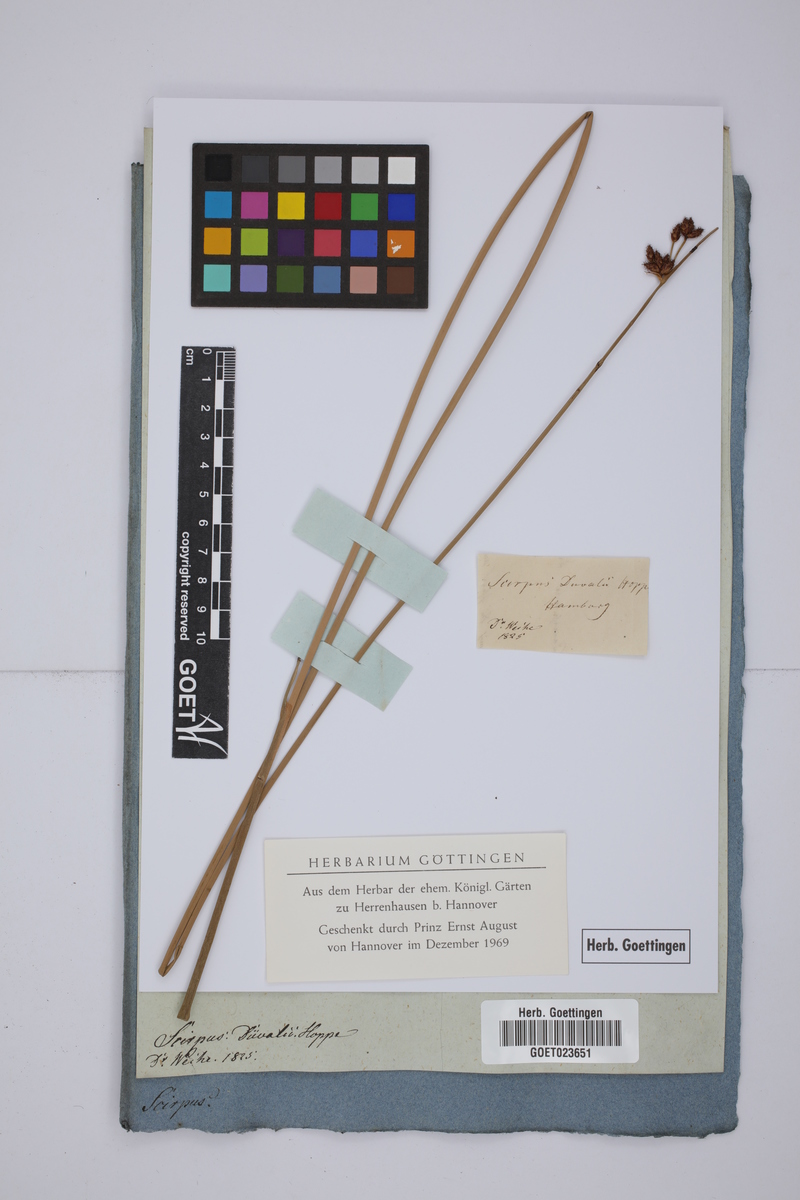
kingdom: Plantae
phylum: Tracheophyta
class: Liliopsida
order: Poales
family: Cyperaceae
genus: Schoenoplectus
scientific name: Schoenoplectus carinatus
